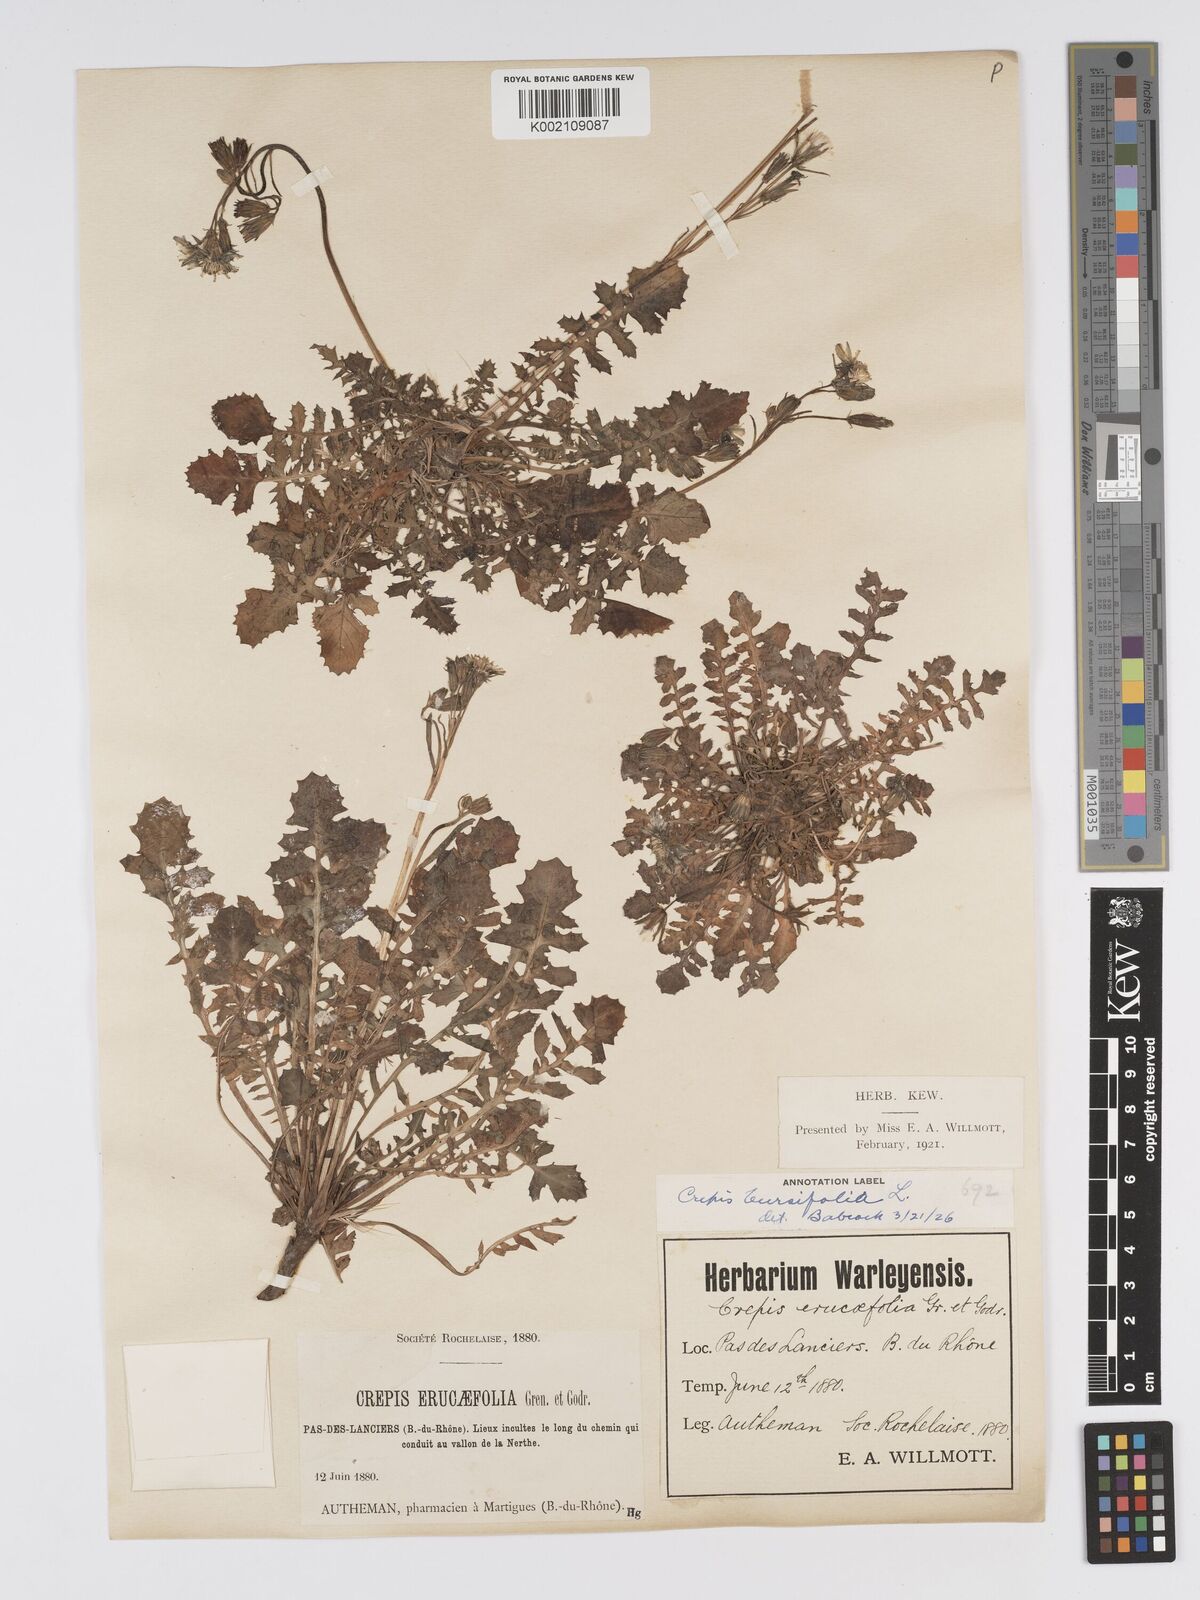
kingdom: Plantae
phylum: Tracheophyta
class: Magnoliopsida
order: Asterales
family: Asteraceae
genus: Crepis
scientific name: Crepis bursifolia
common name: Italian hawksbeard
